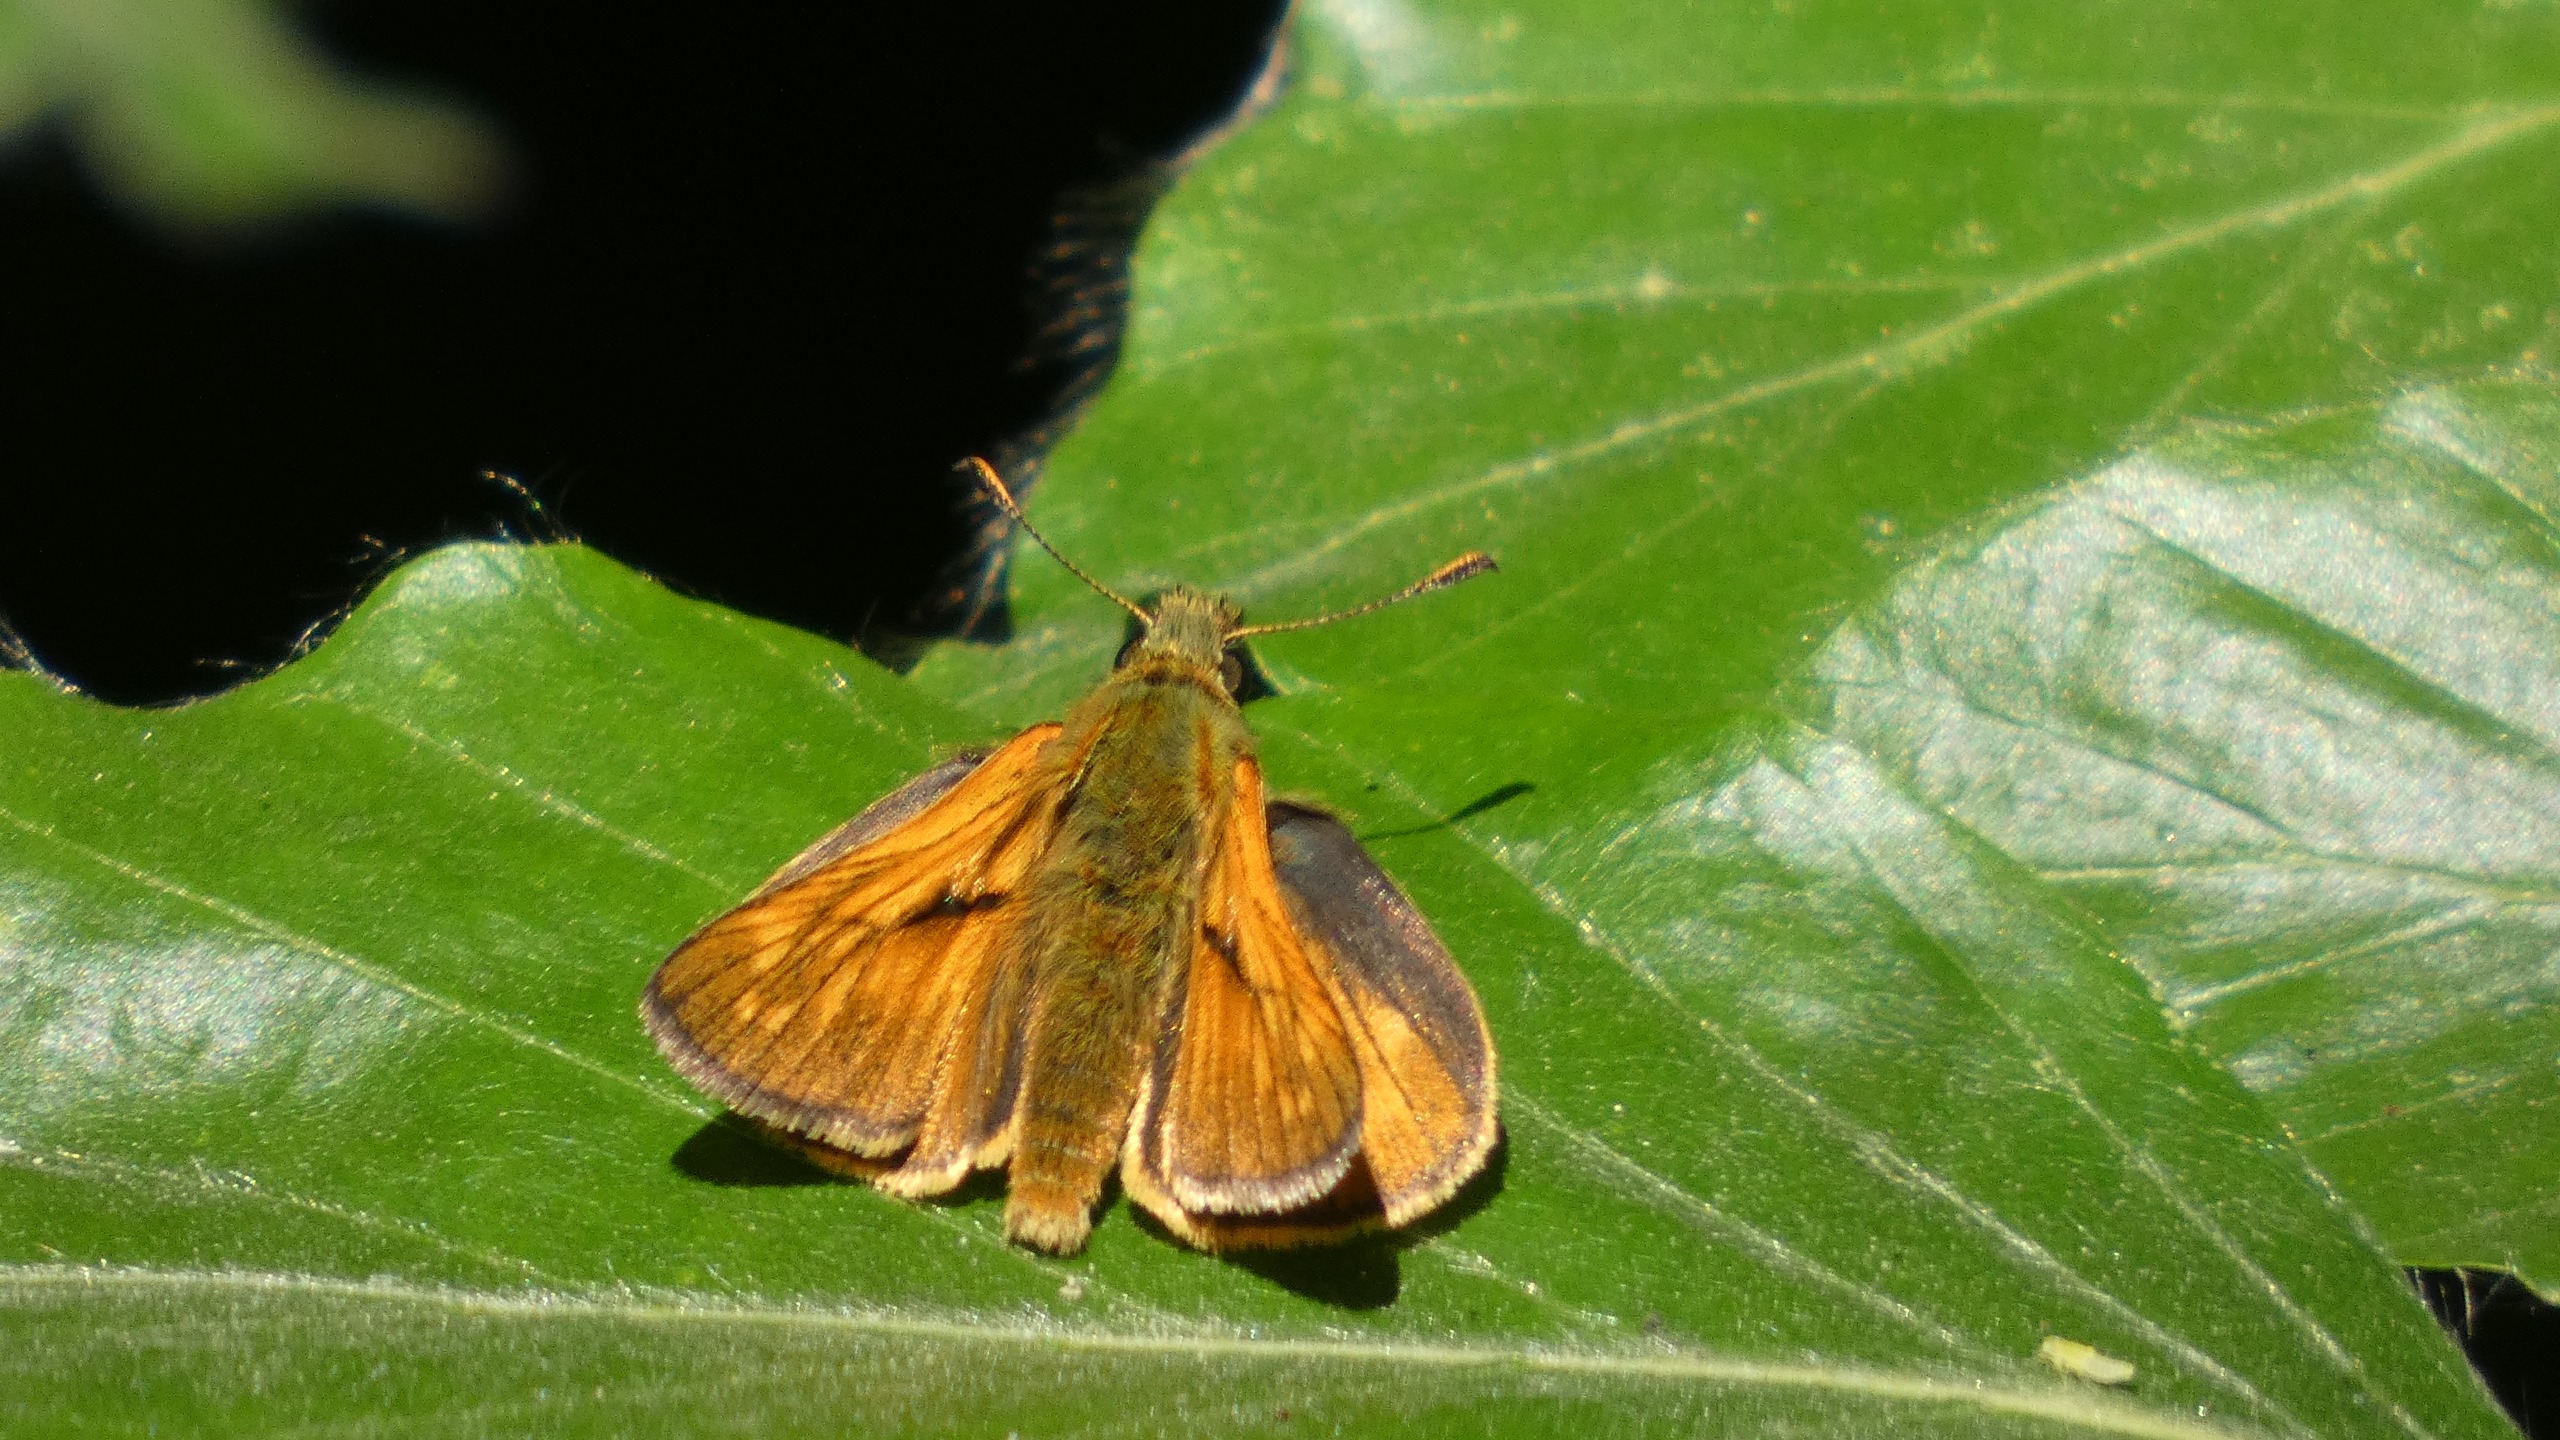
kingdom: Animalia
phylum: Arthropoda
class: Insecta
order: Lepidoptera
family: Hesperiidae
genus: Ochlodes
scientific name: Ochlodes venata
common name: Stor bredpande
